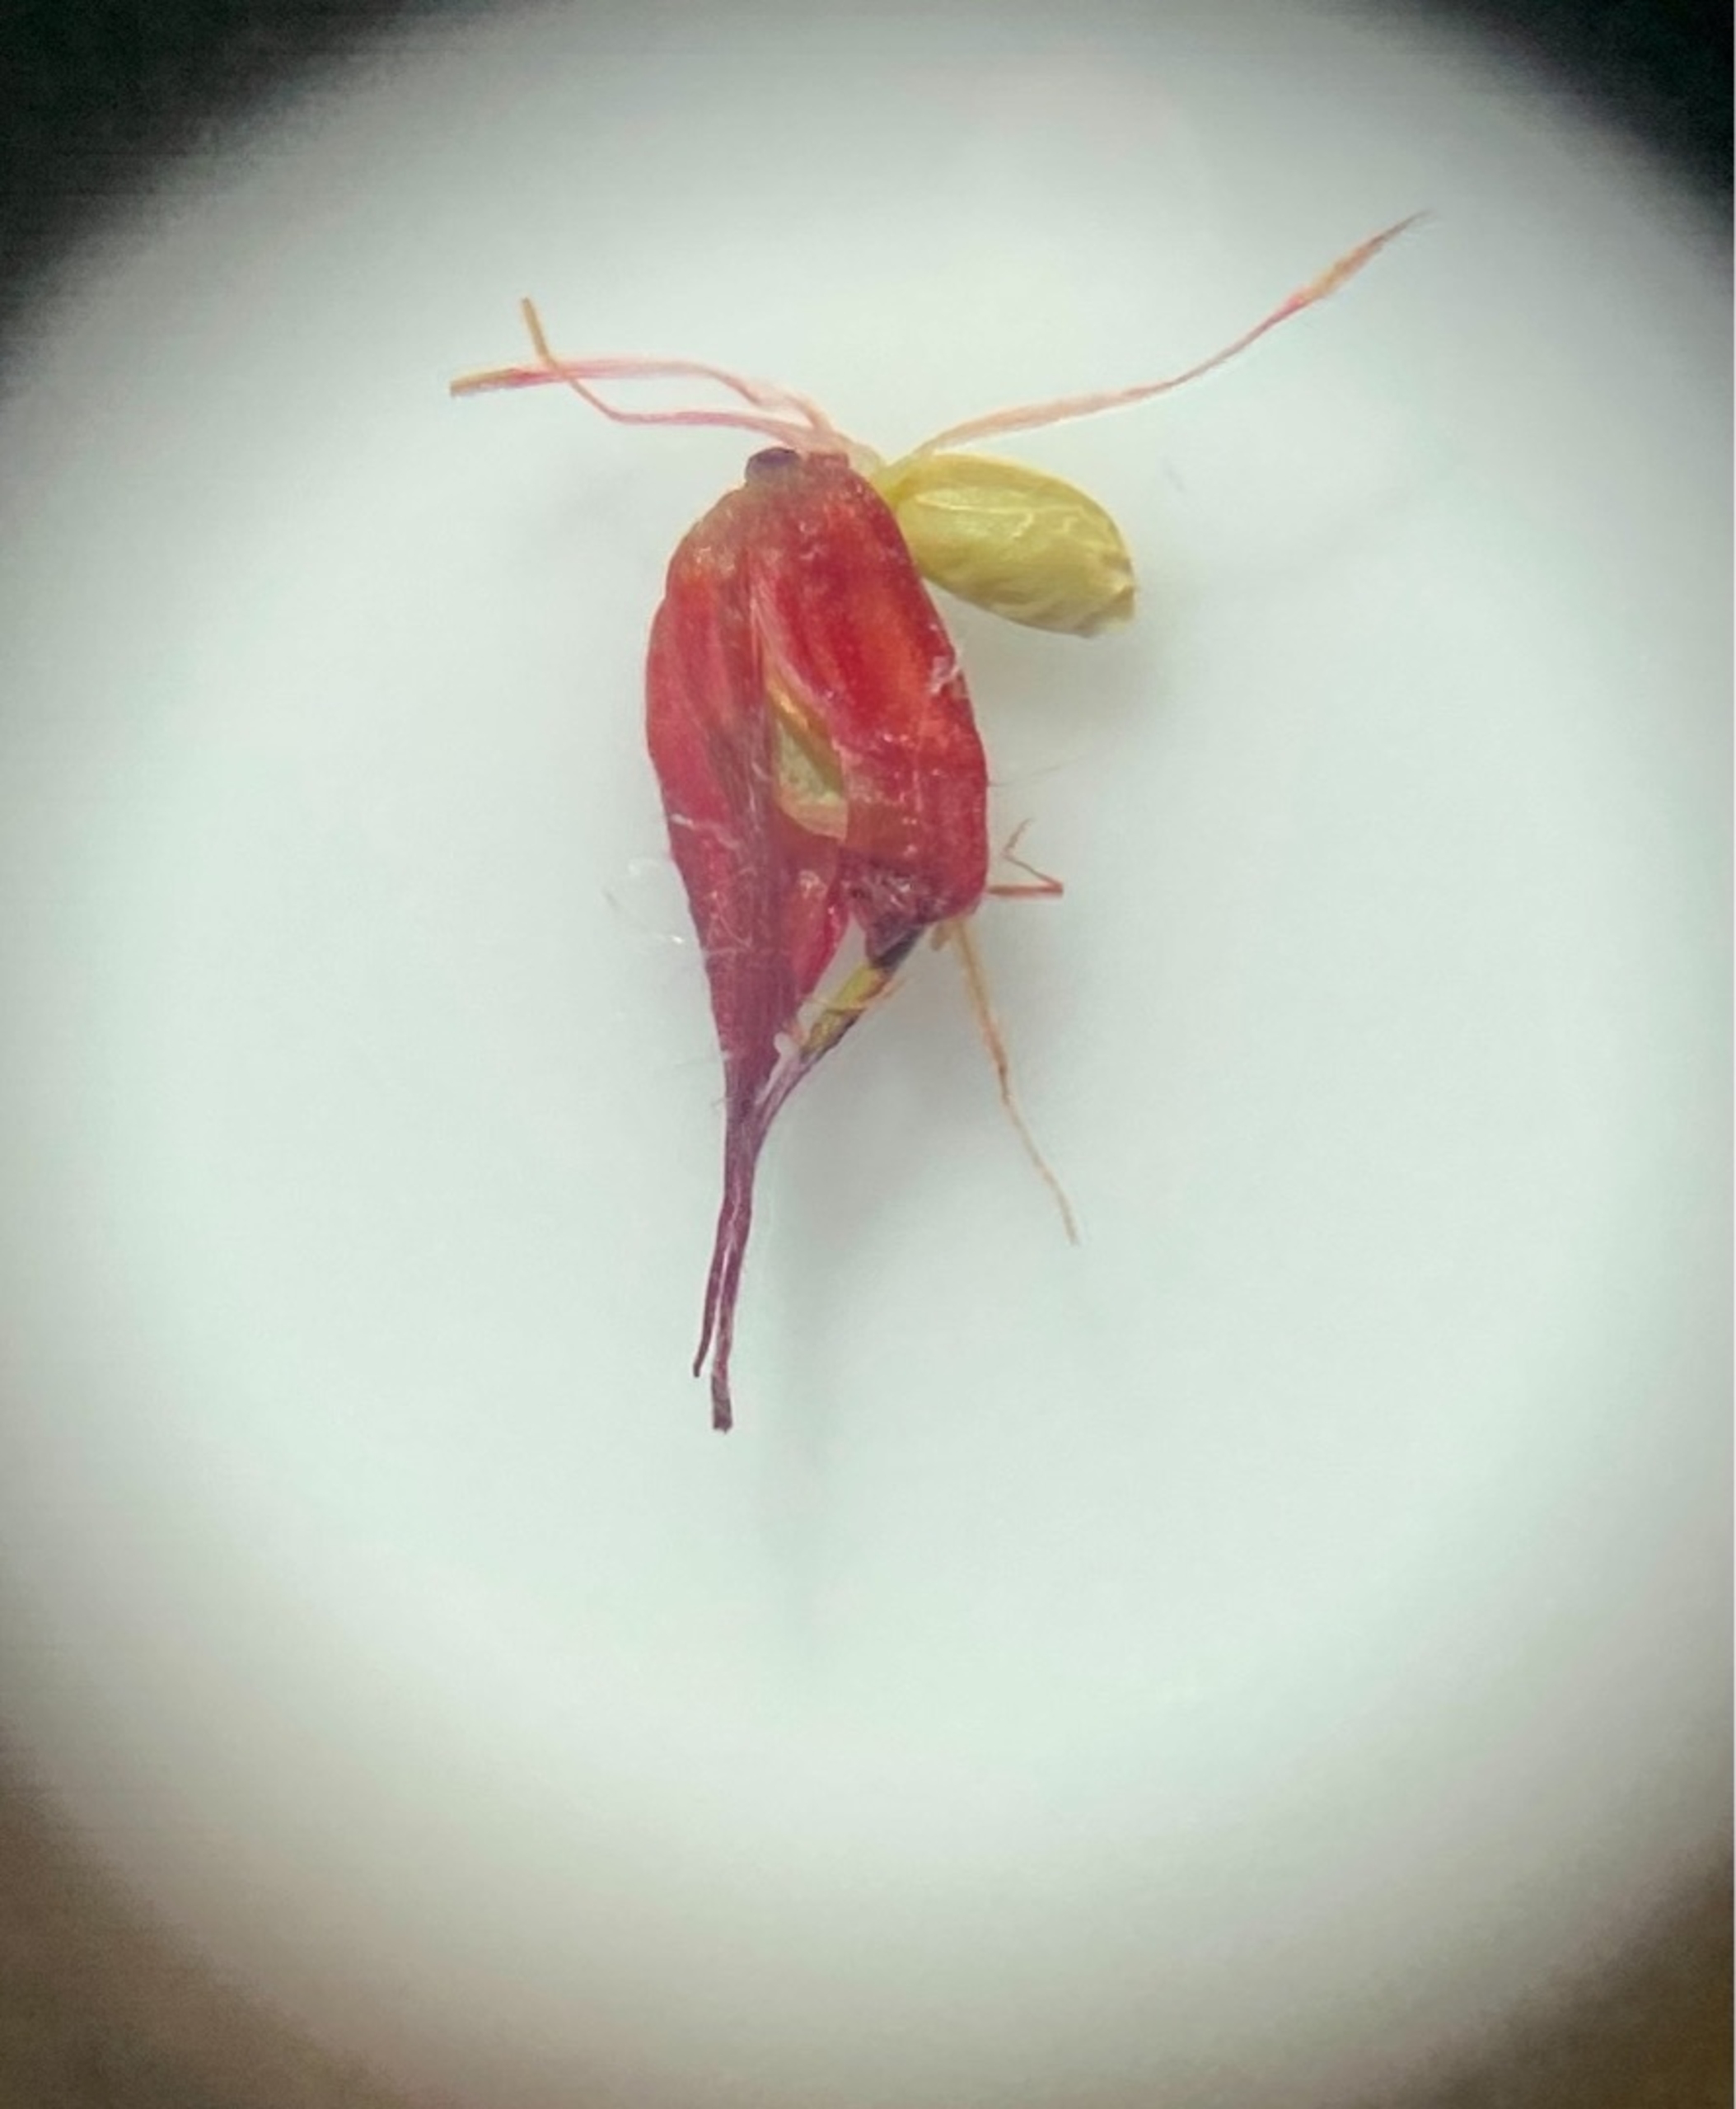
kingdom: Plantae
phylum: Tracheophyta
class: Magnoliopsida
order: Geraniales
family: Geraniaceae
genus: Geranium
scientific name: Geranium purpureum
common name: Strand-storkenæb
